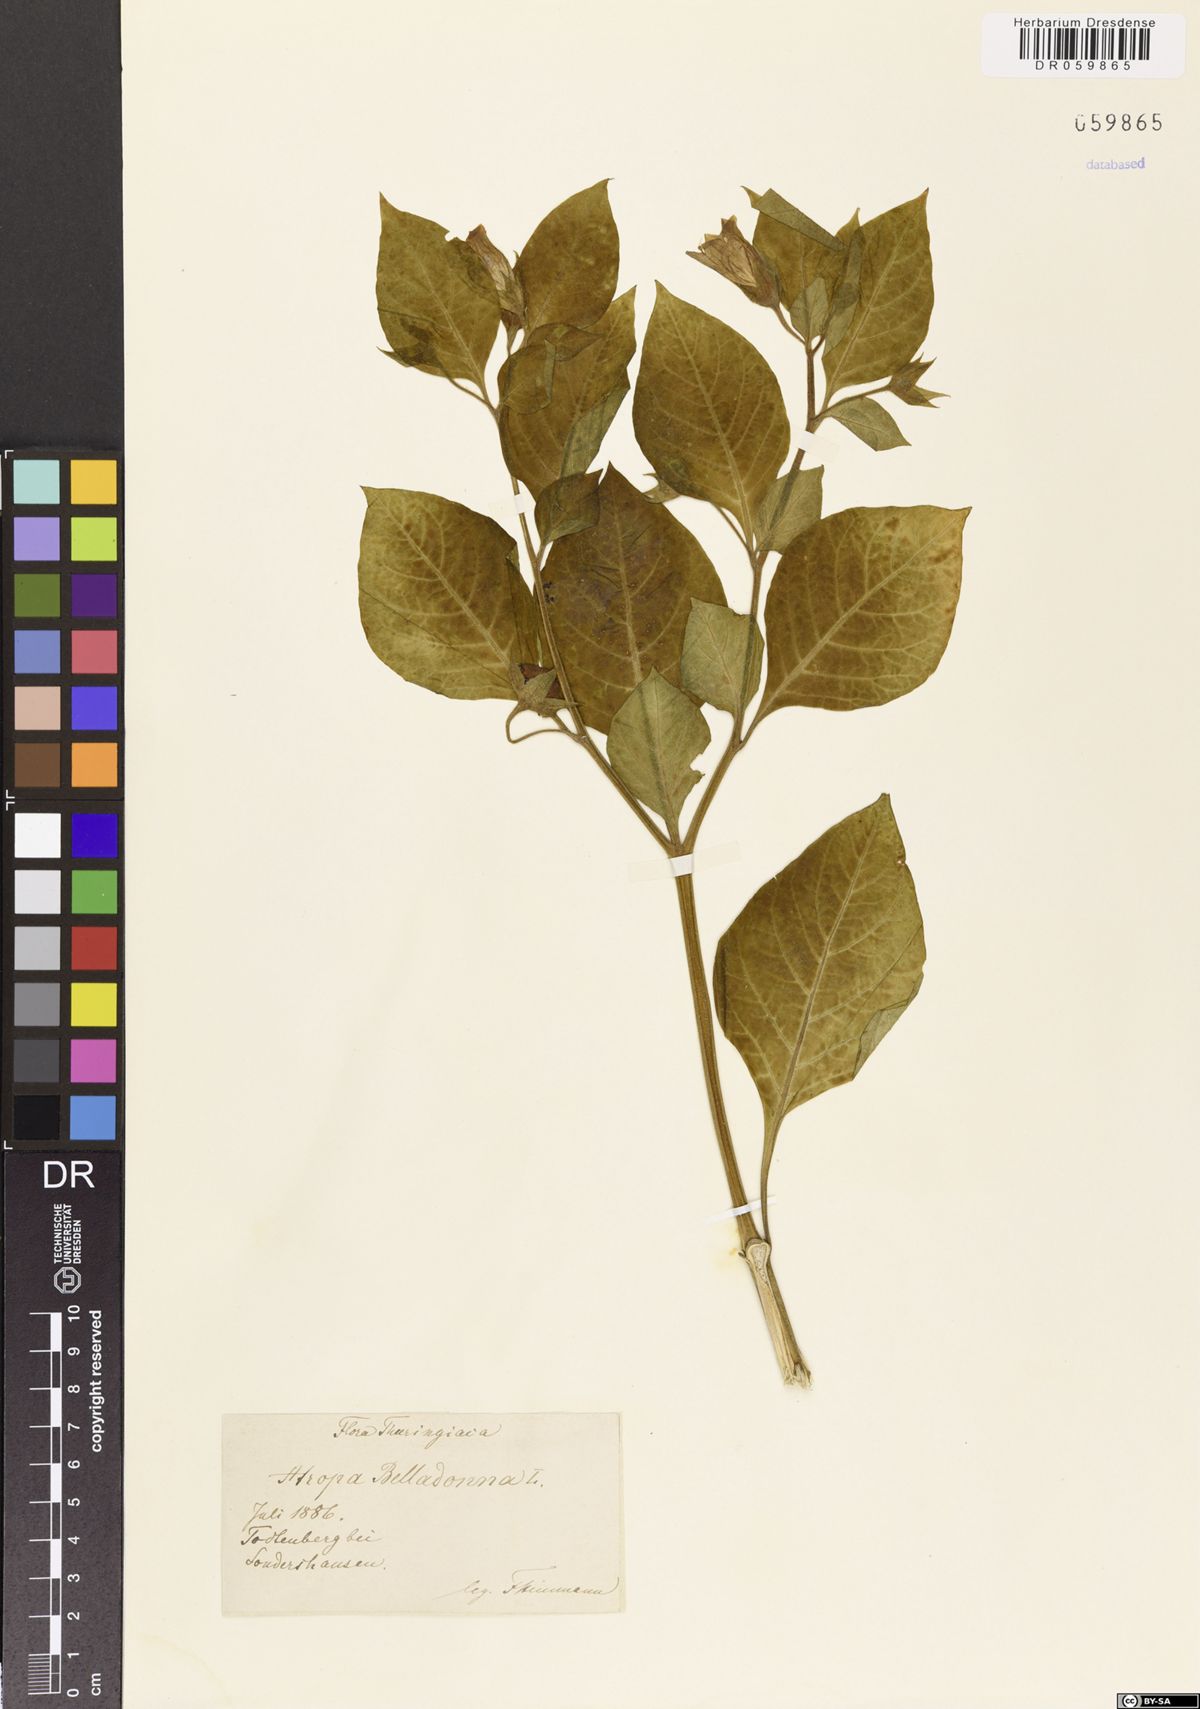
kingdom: Plantae
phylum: Tracheophyta
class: Magnoliopsida
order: Solanales
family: Solanaceae
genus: Atropa
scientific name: Atropa belladonna
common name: Deadly nightshade
